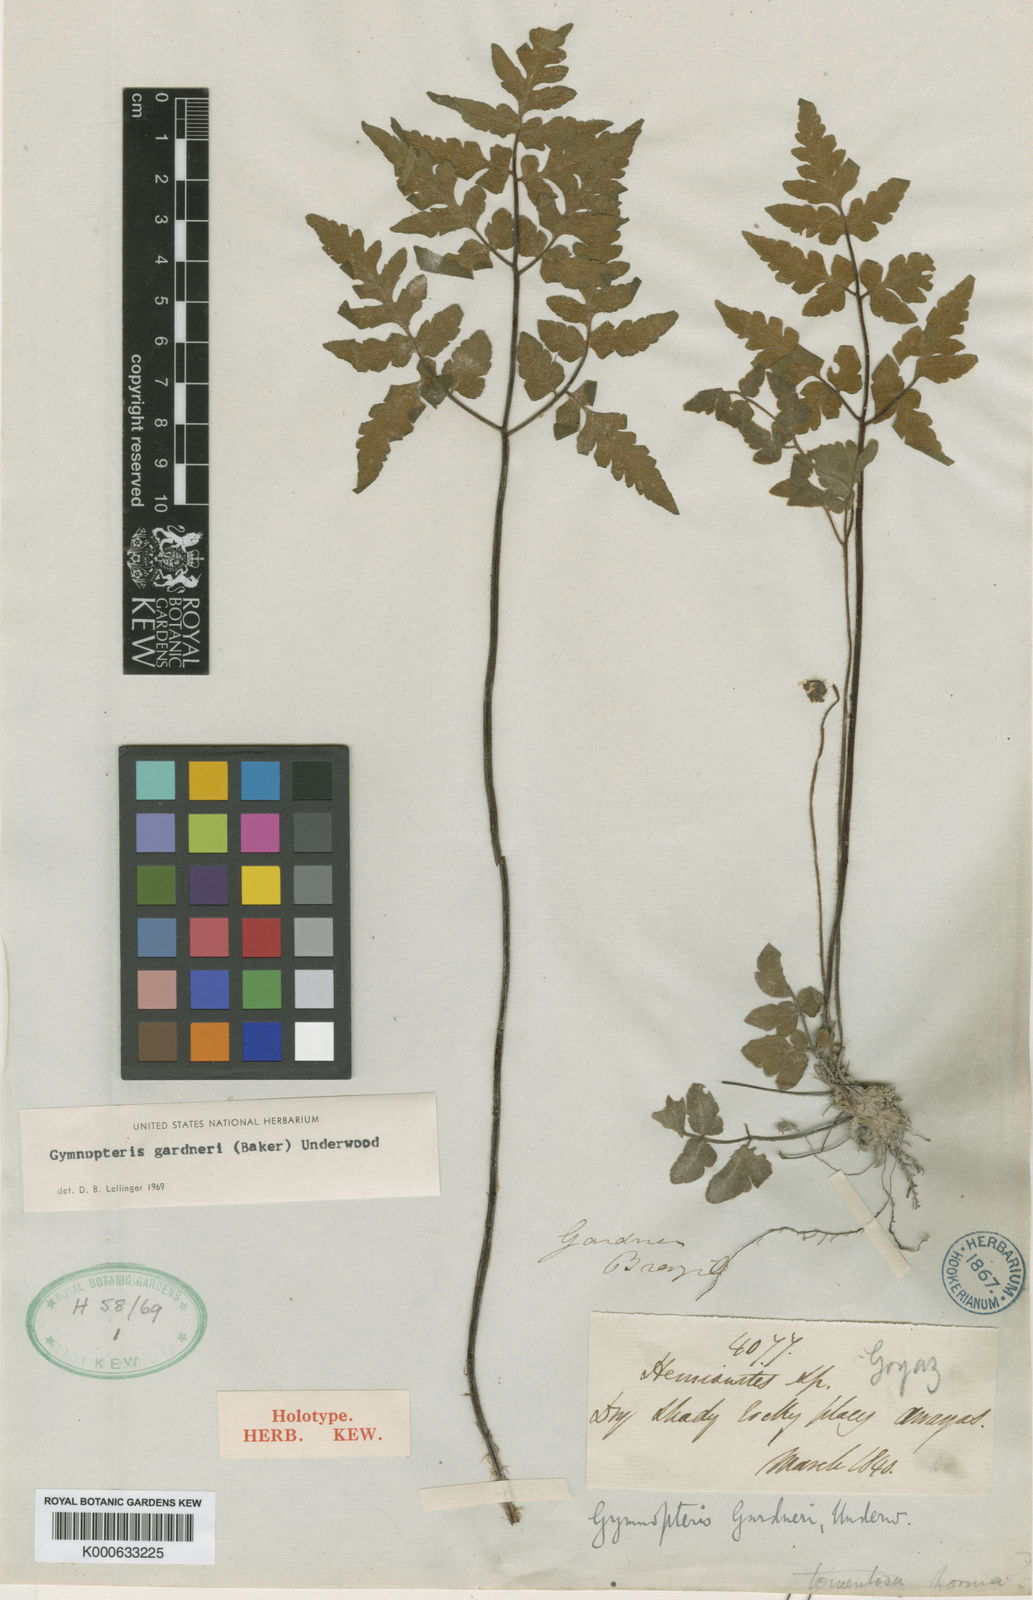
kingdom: Plantae
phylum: Tracheophyta
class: Polypodiopsida
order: Polypodiales
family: Pteridaceae
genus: Hemionitis
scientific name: Hemionitis Gymnopteris gardneri
